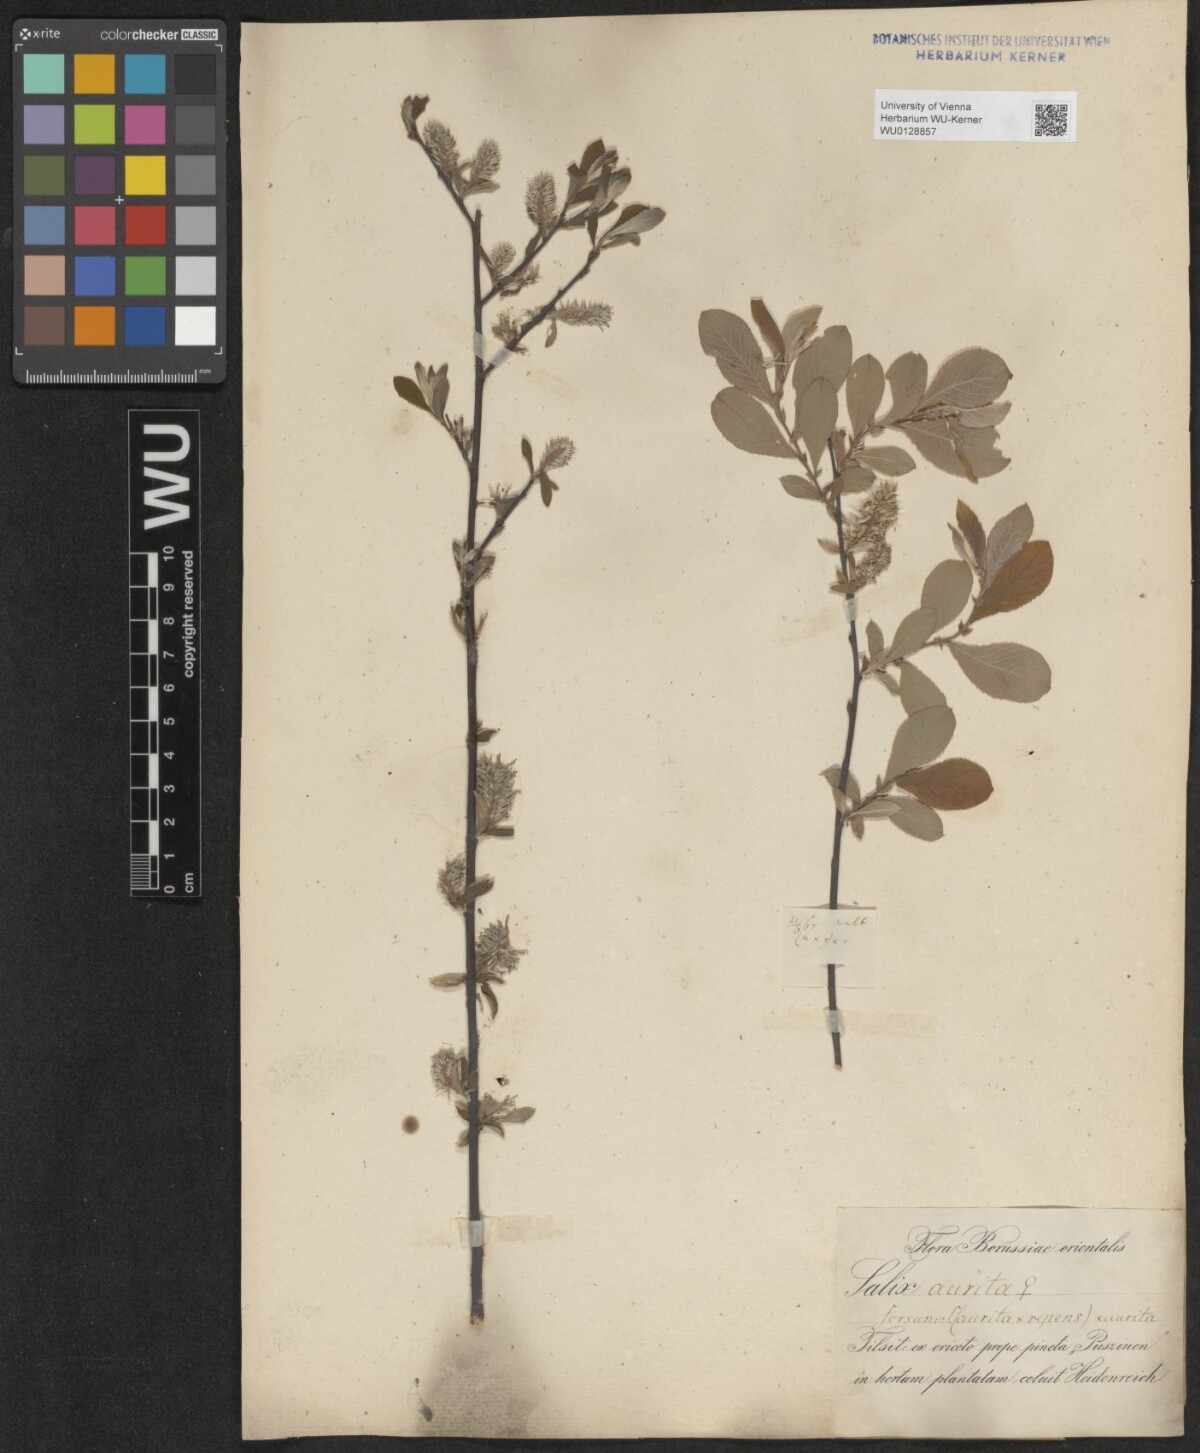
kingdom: Plantae
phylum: Tracheophyta
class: Magnoliopsida
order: Malpighiales
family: Salicaceae
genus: Salix
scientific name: Salix aurita
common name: Eared willow
